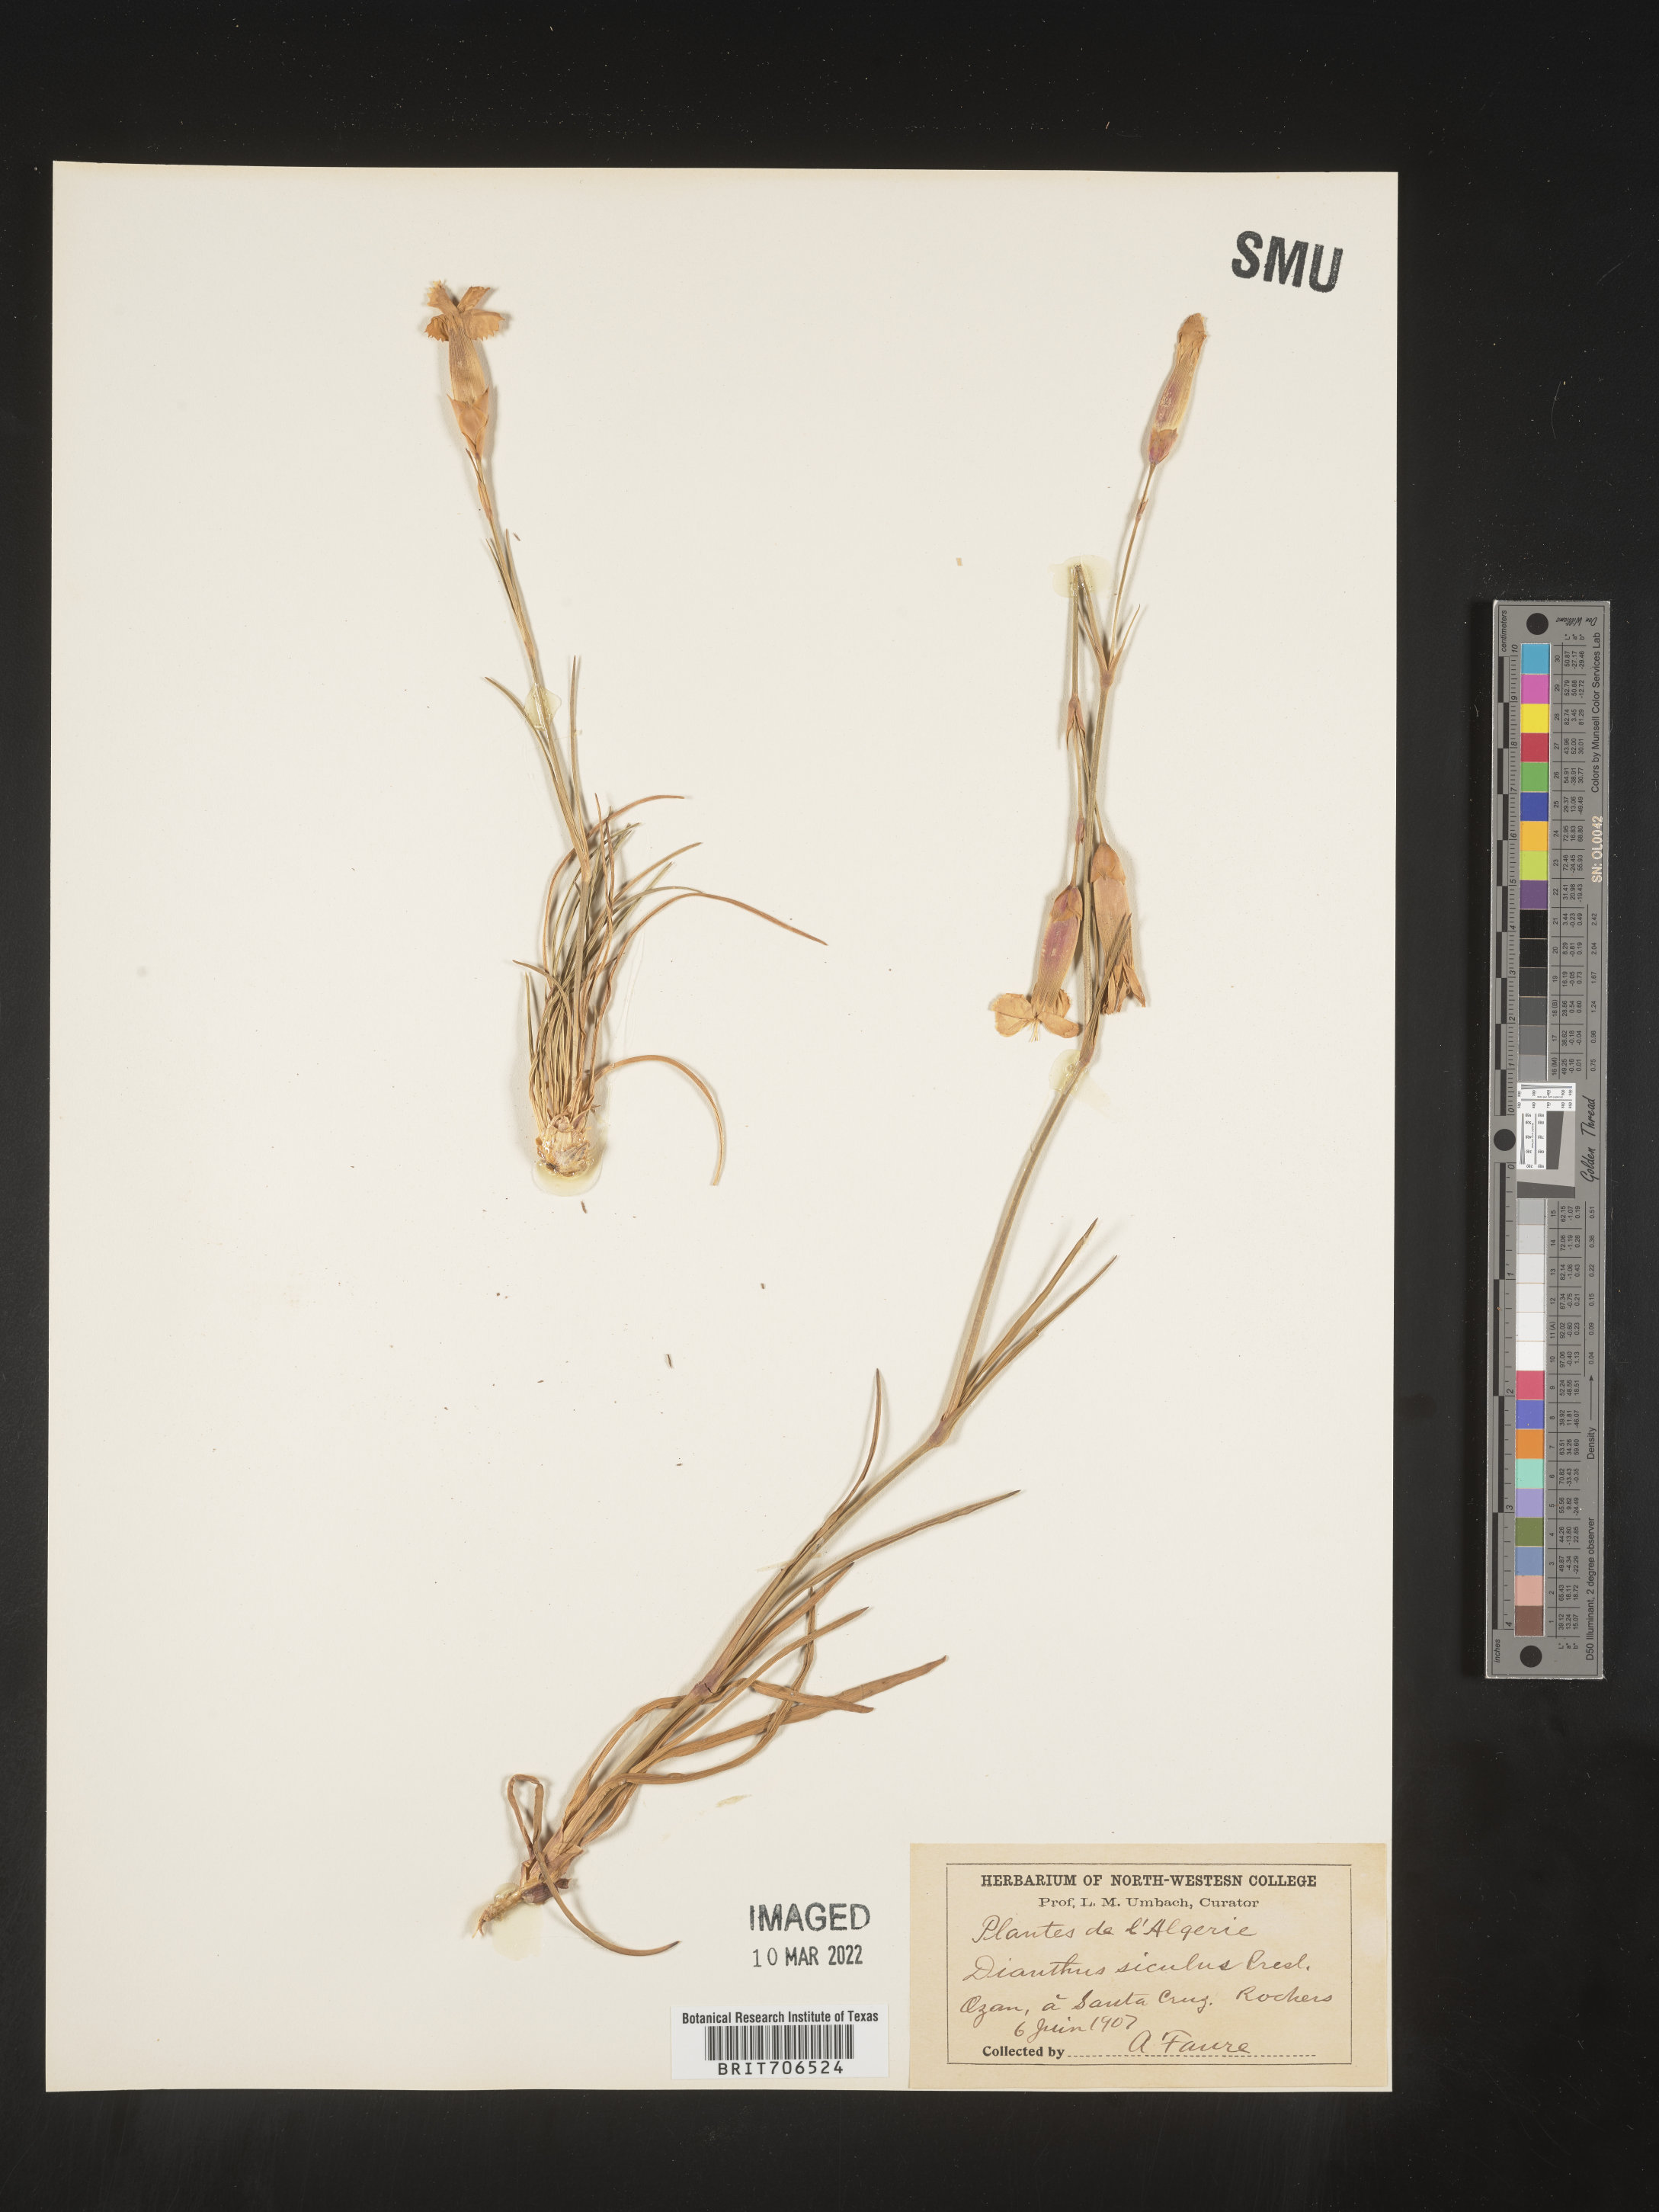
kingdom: Plantae
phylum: Tracheophyta
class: Magnoliopsida
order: Caryophyllales
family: Caryophyllaceae
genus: Dianthus
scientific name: Dianthus
